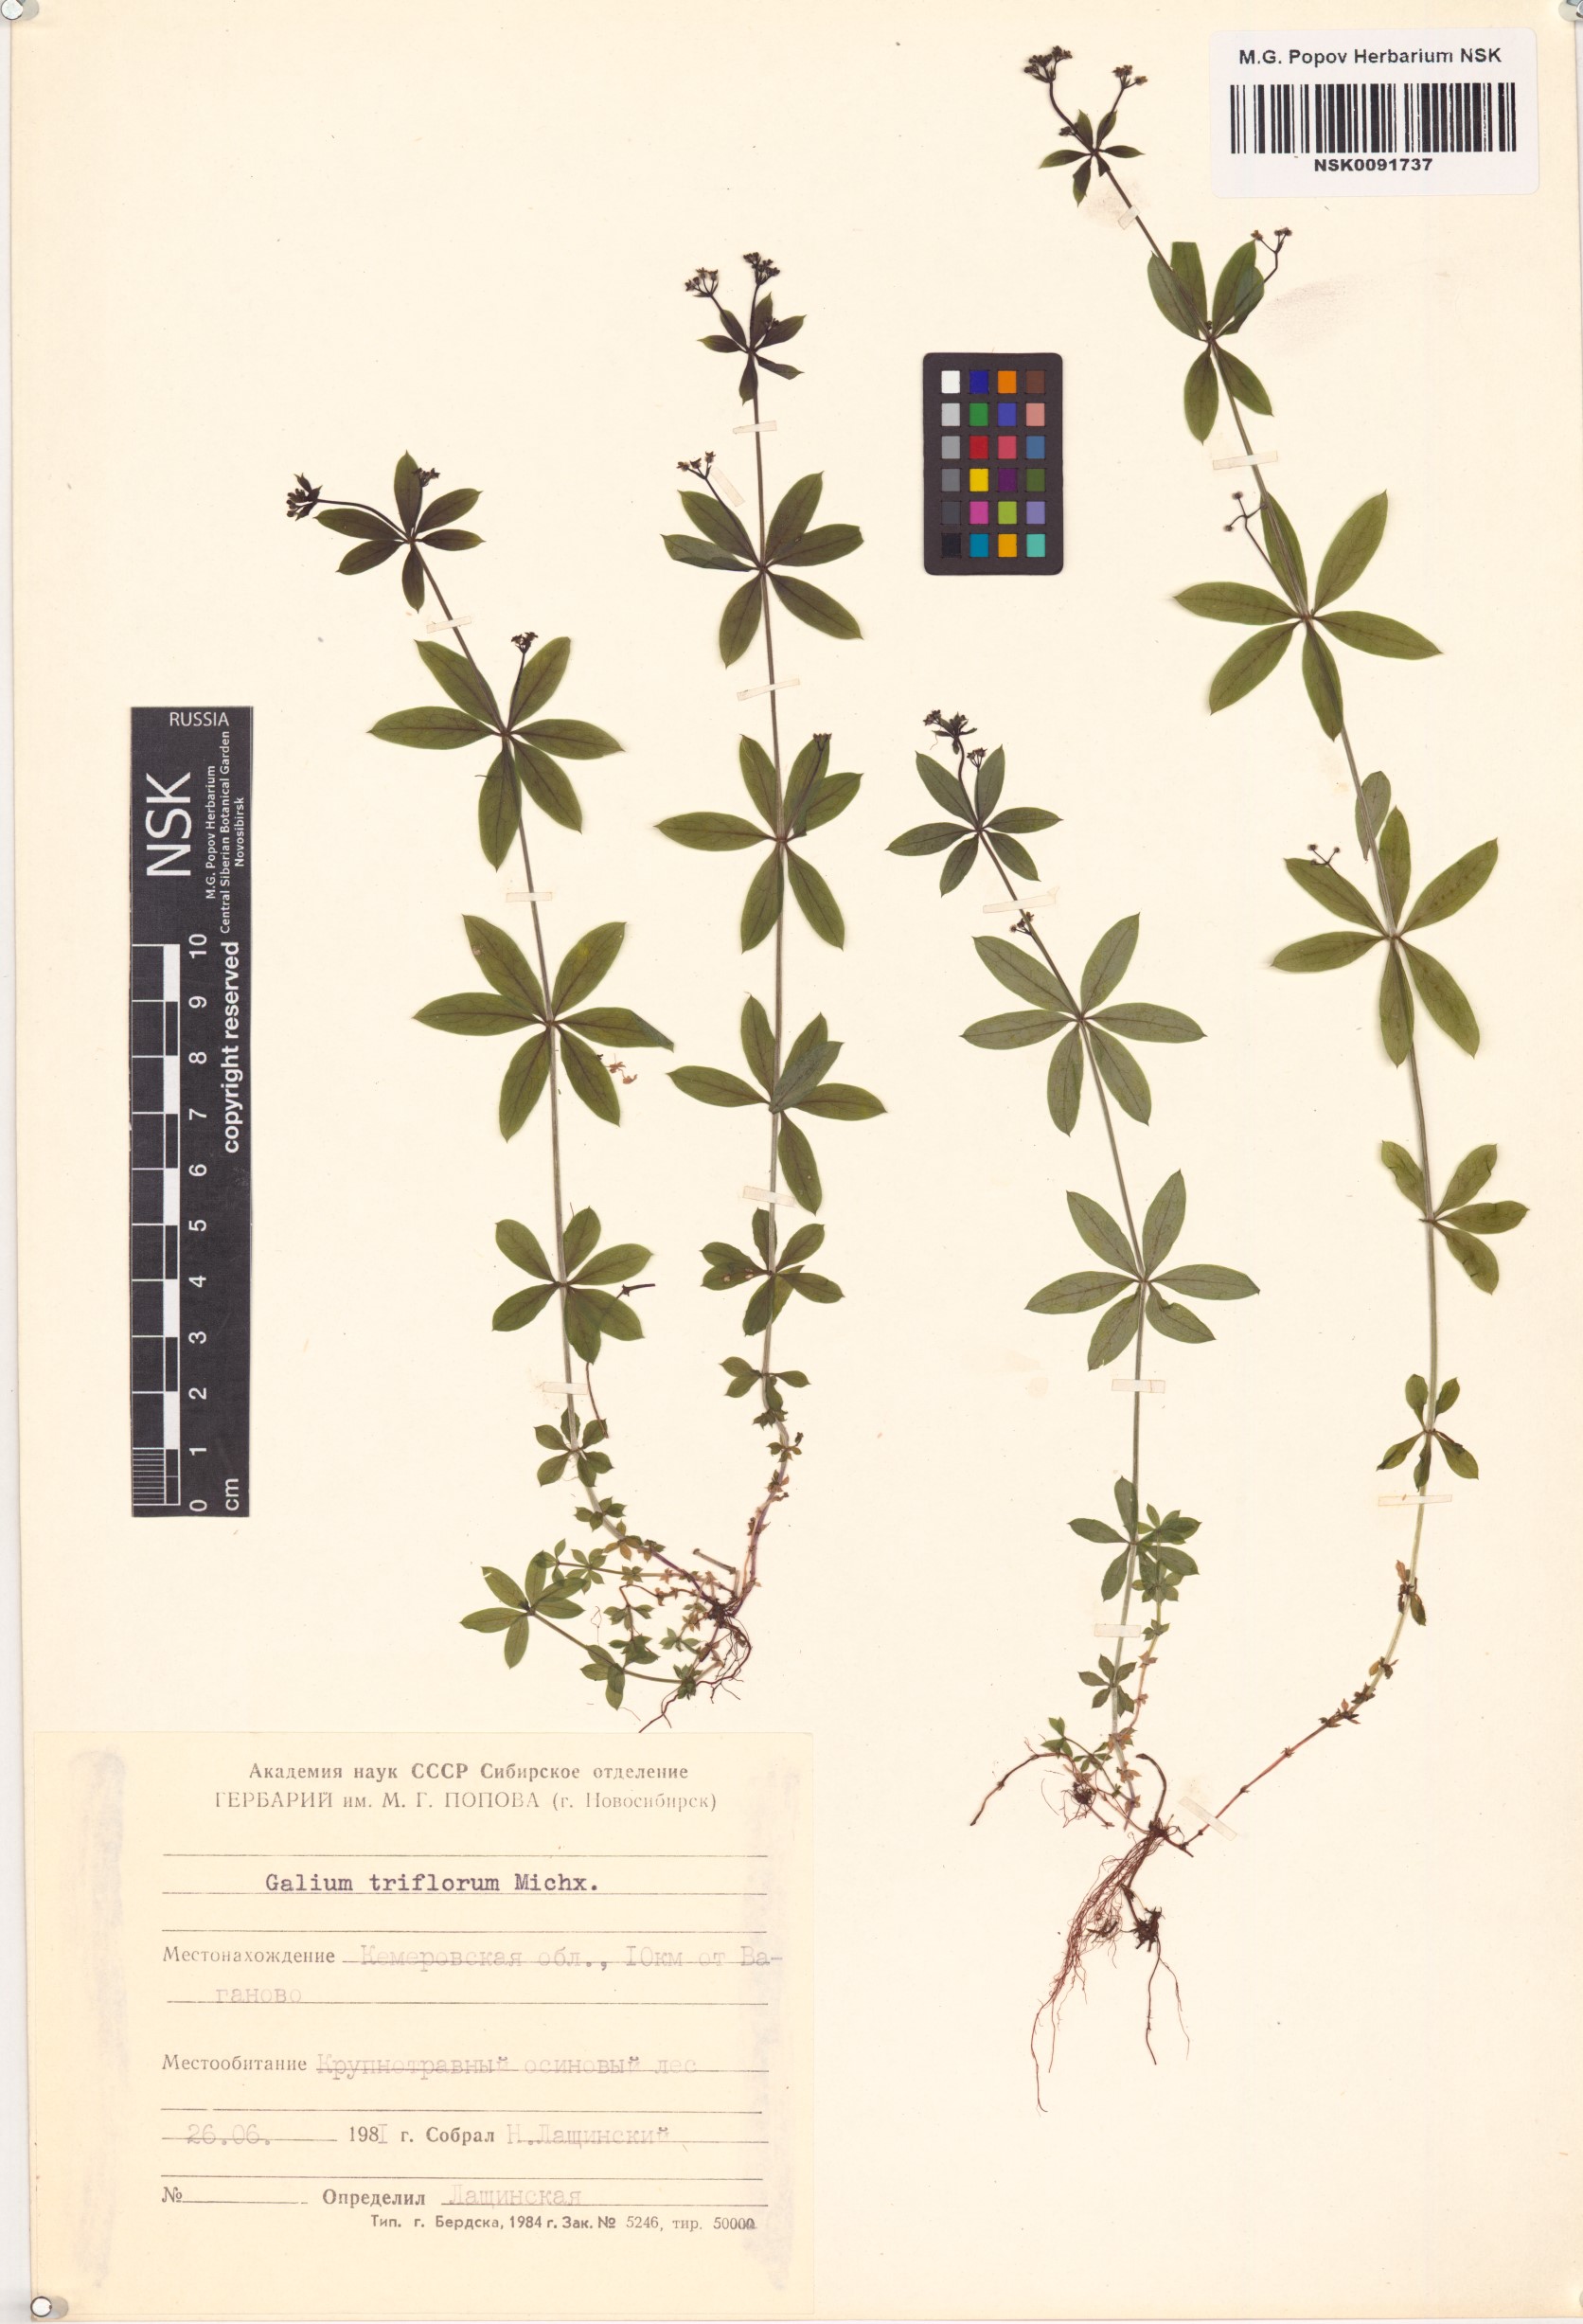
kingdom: Plantae
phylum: Tracheophyta
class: Magnoliopsida
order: Gentianales
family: Rubiaceae
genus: Galium
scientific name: Galium triflorum
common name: Fragrant bedstraw
